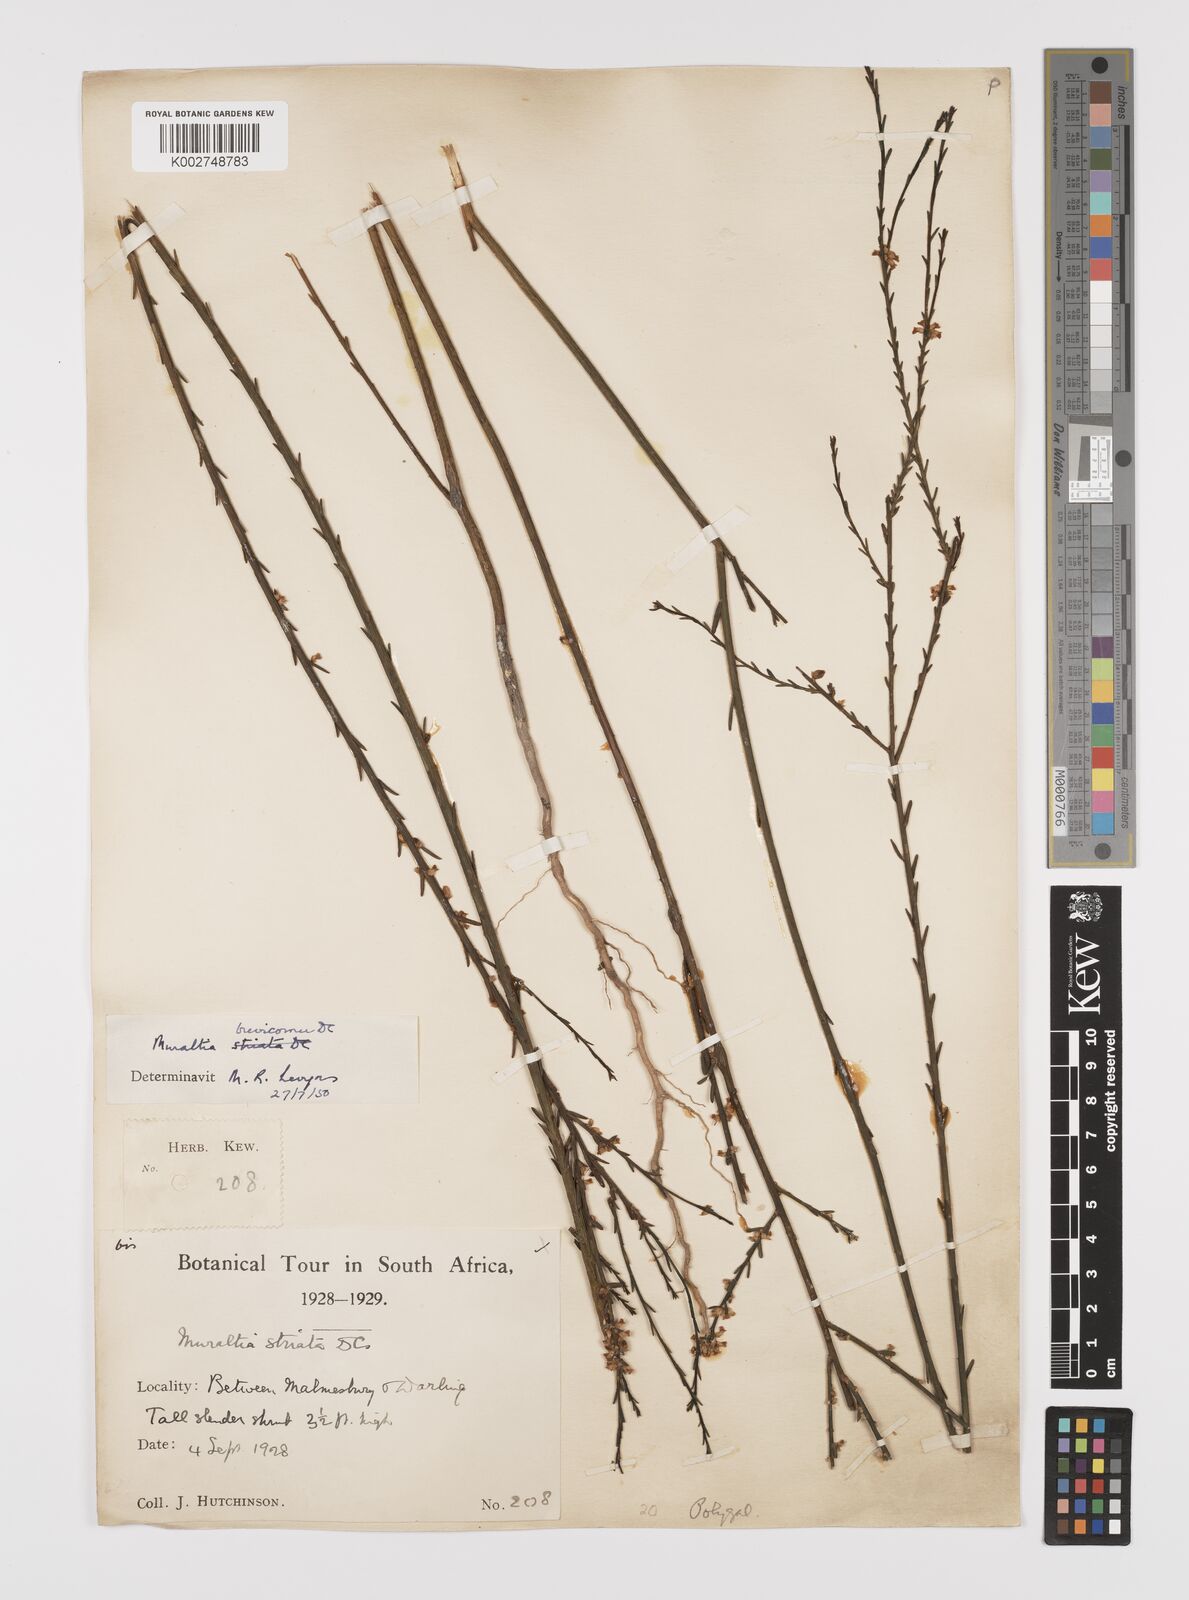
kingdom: Plantae
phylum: Tracheophyta
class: Magnoliopsida
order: Fabales
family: Polygalaceae
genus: Muraltia
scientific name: Muraltia striata
